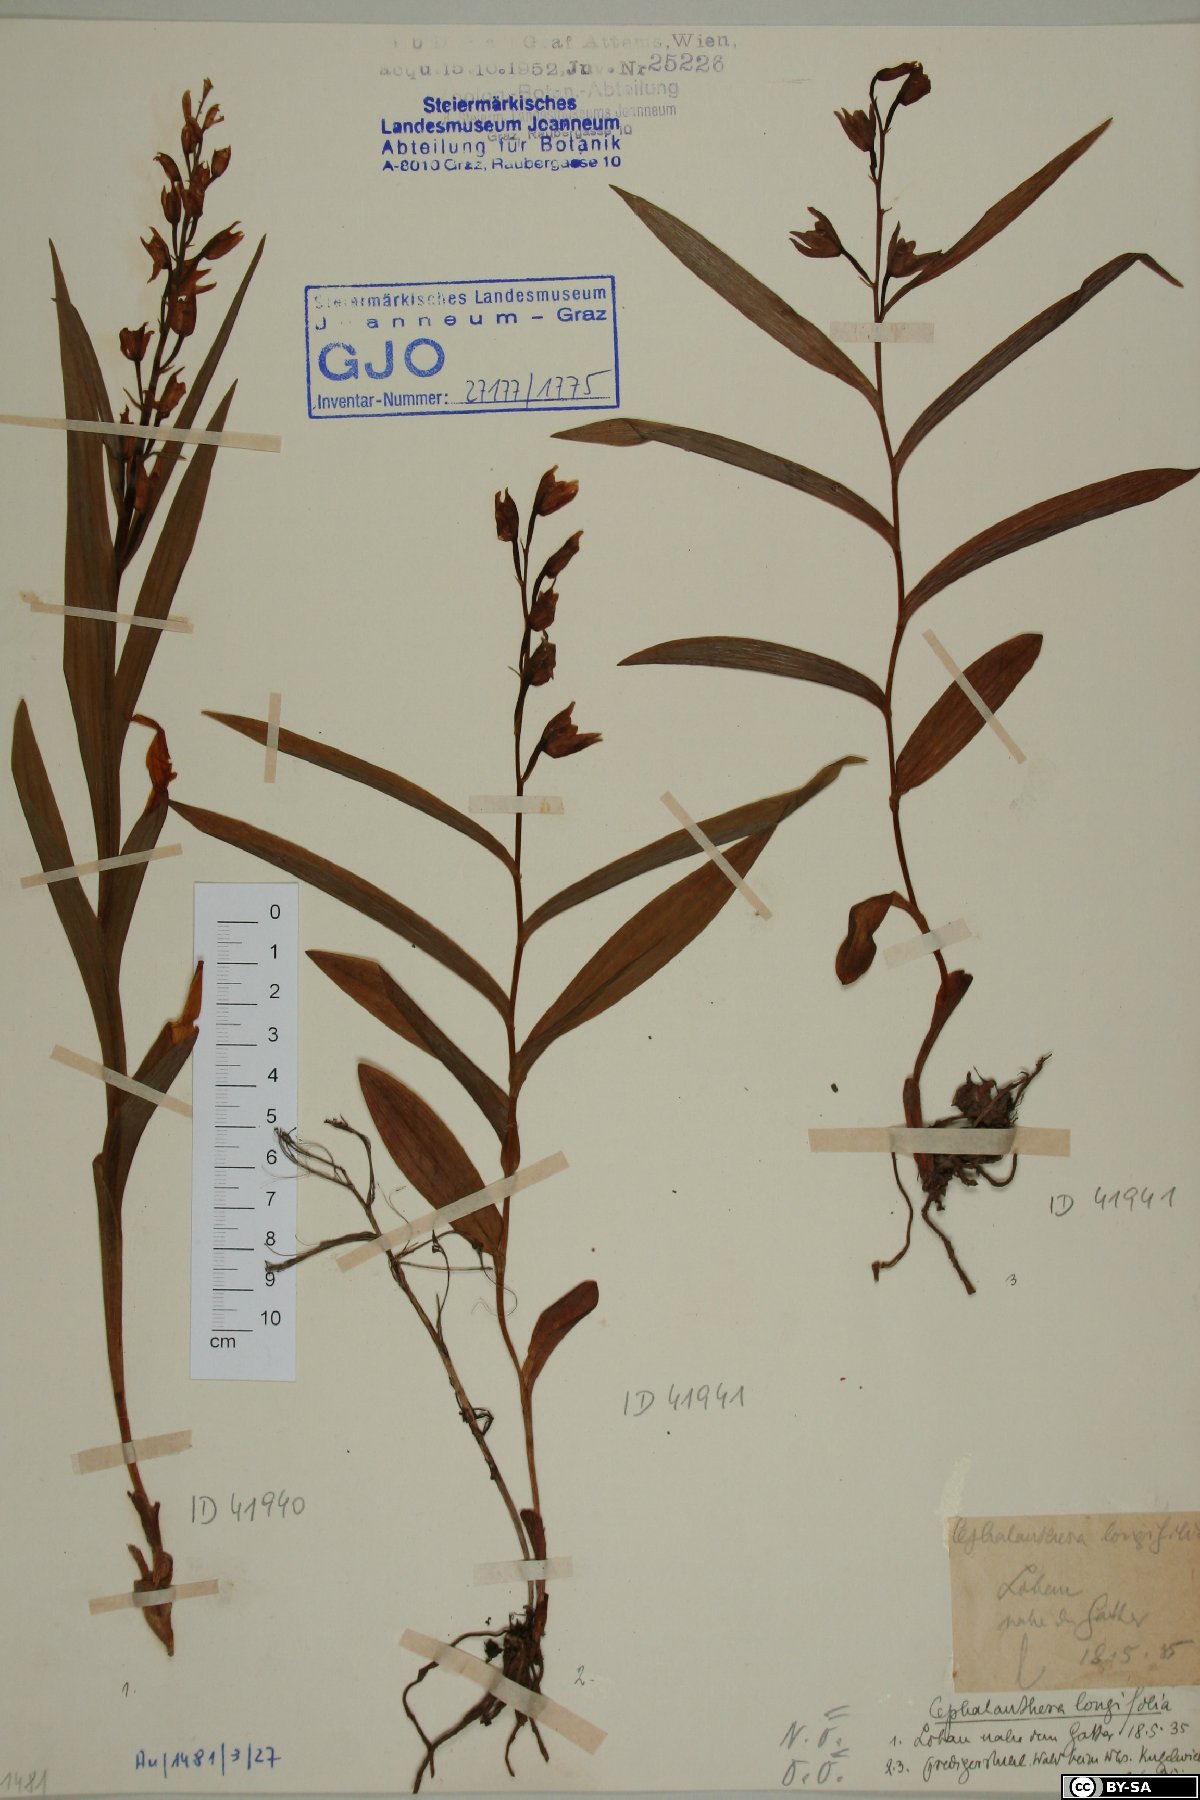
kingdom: Plantae
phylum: Tracheophyta
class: Liliopsida
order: Asparagales
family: Orchidaceae
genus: Cephalanthera
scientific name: Cephalanthera longifolia
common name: Narrow-leaved helleborine
